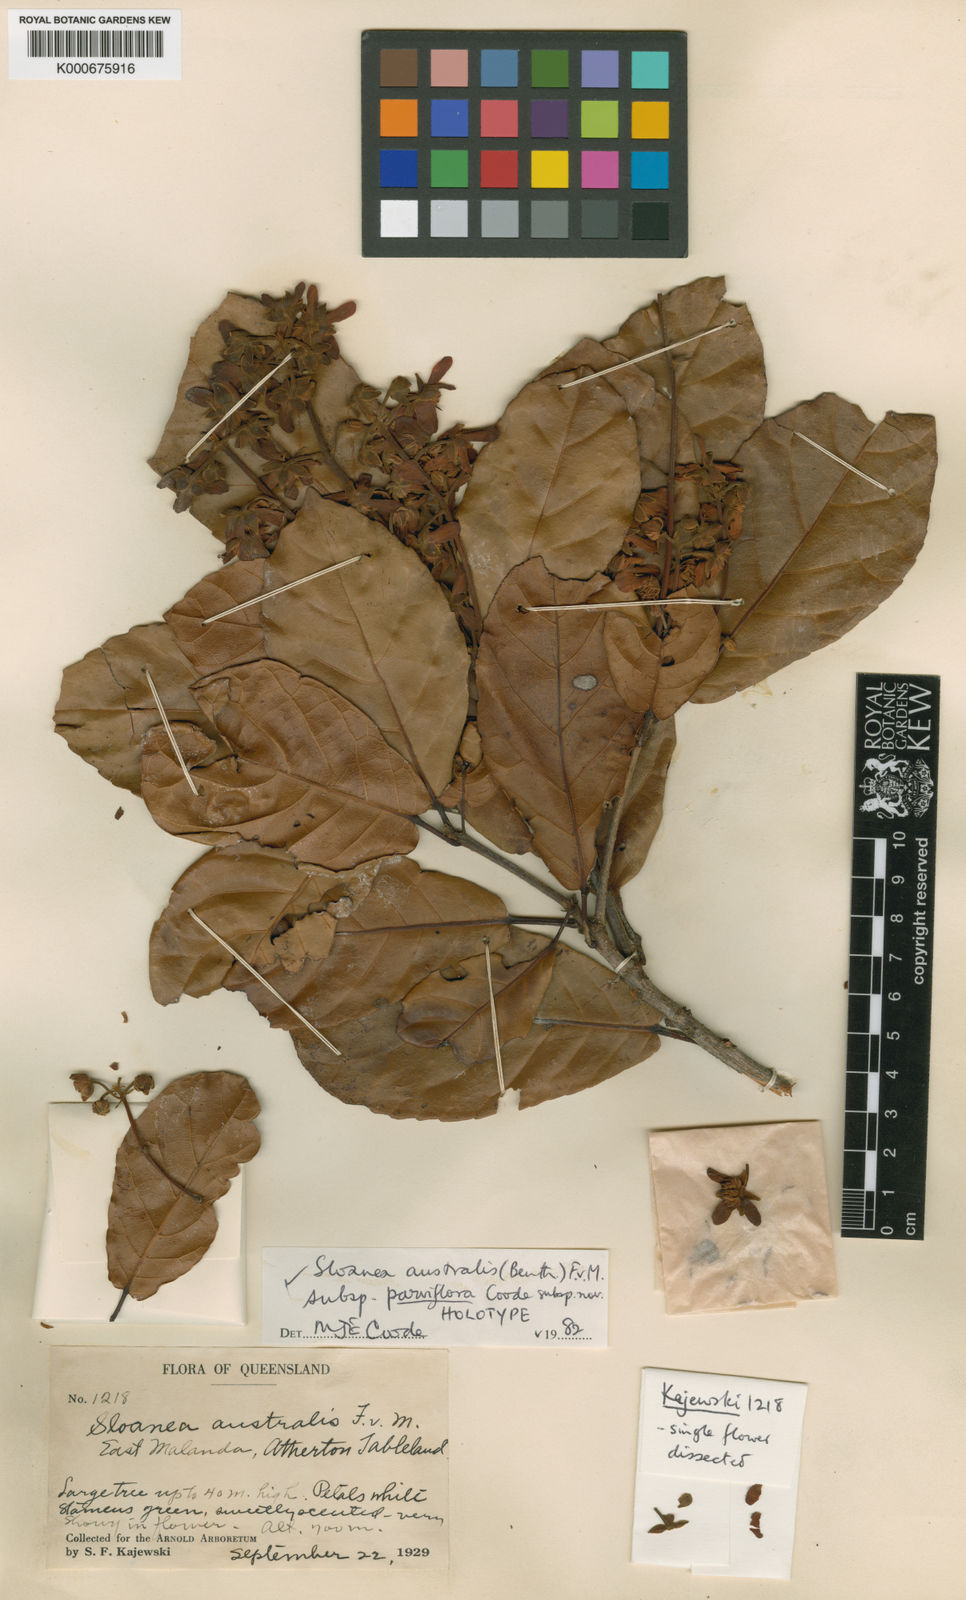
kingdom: Plantae
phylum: Tracheophyta
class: Magnoliopsida
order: Oxalidales
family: Elaeocarpaceae
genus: Sloanea
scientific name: Sloanea australis
